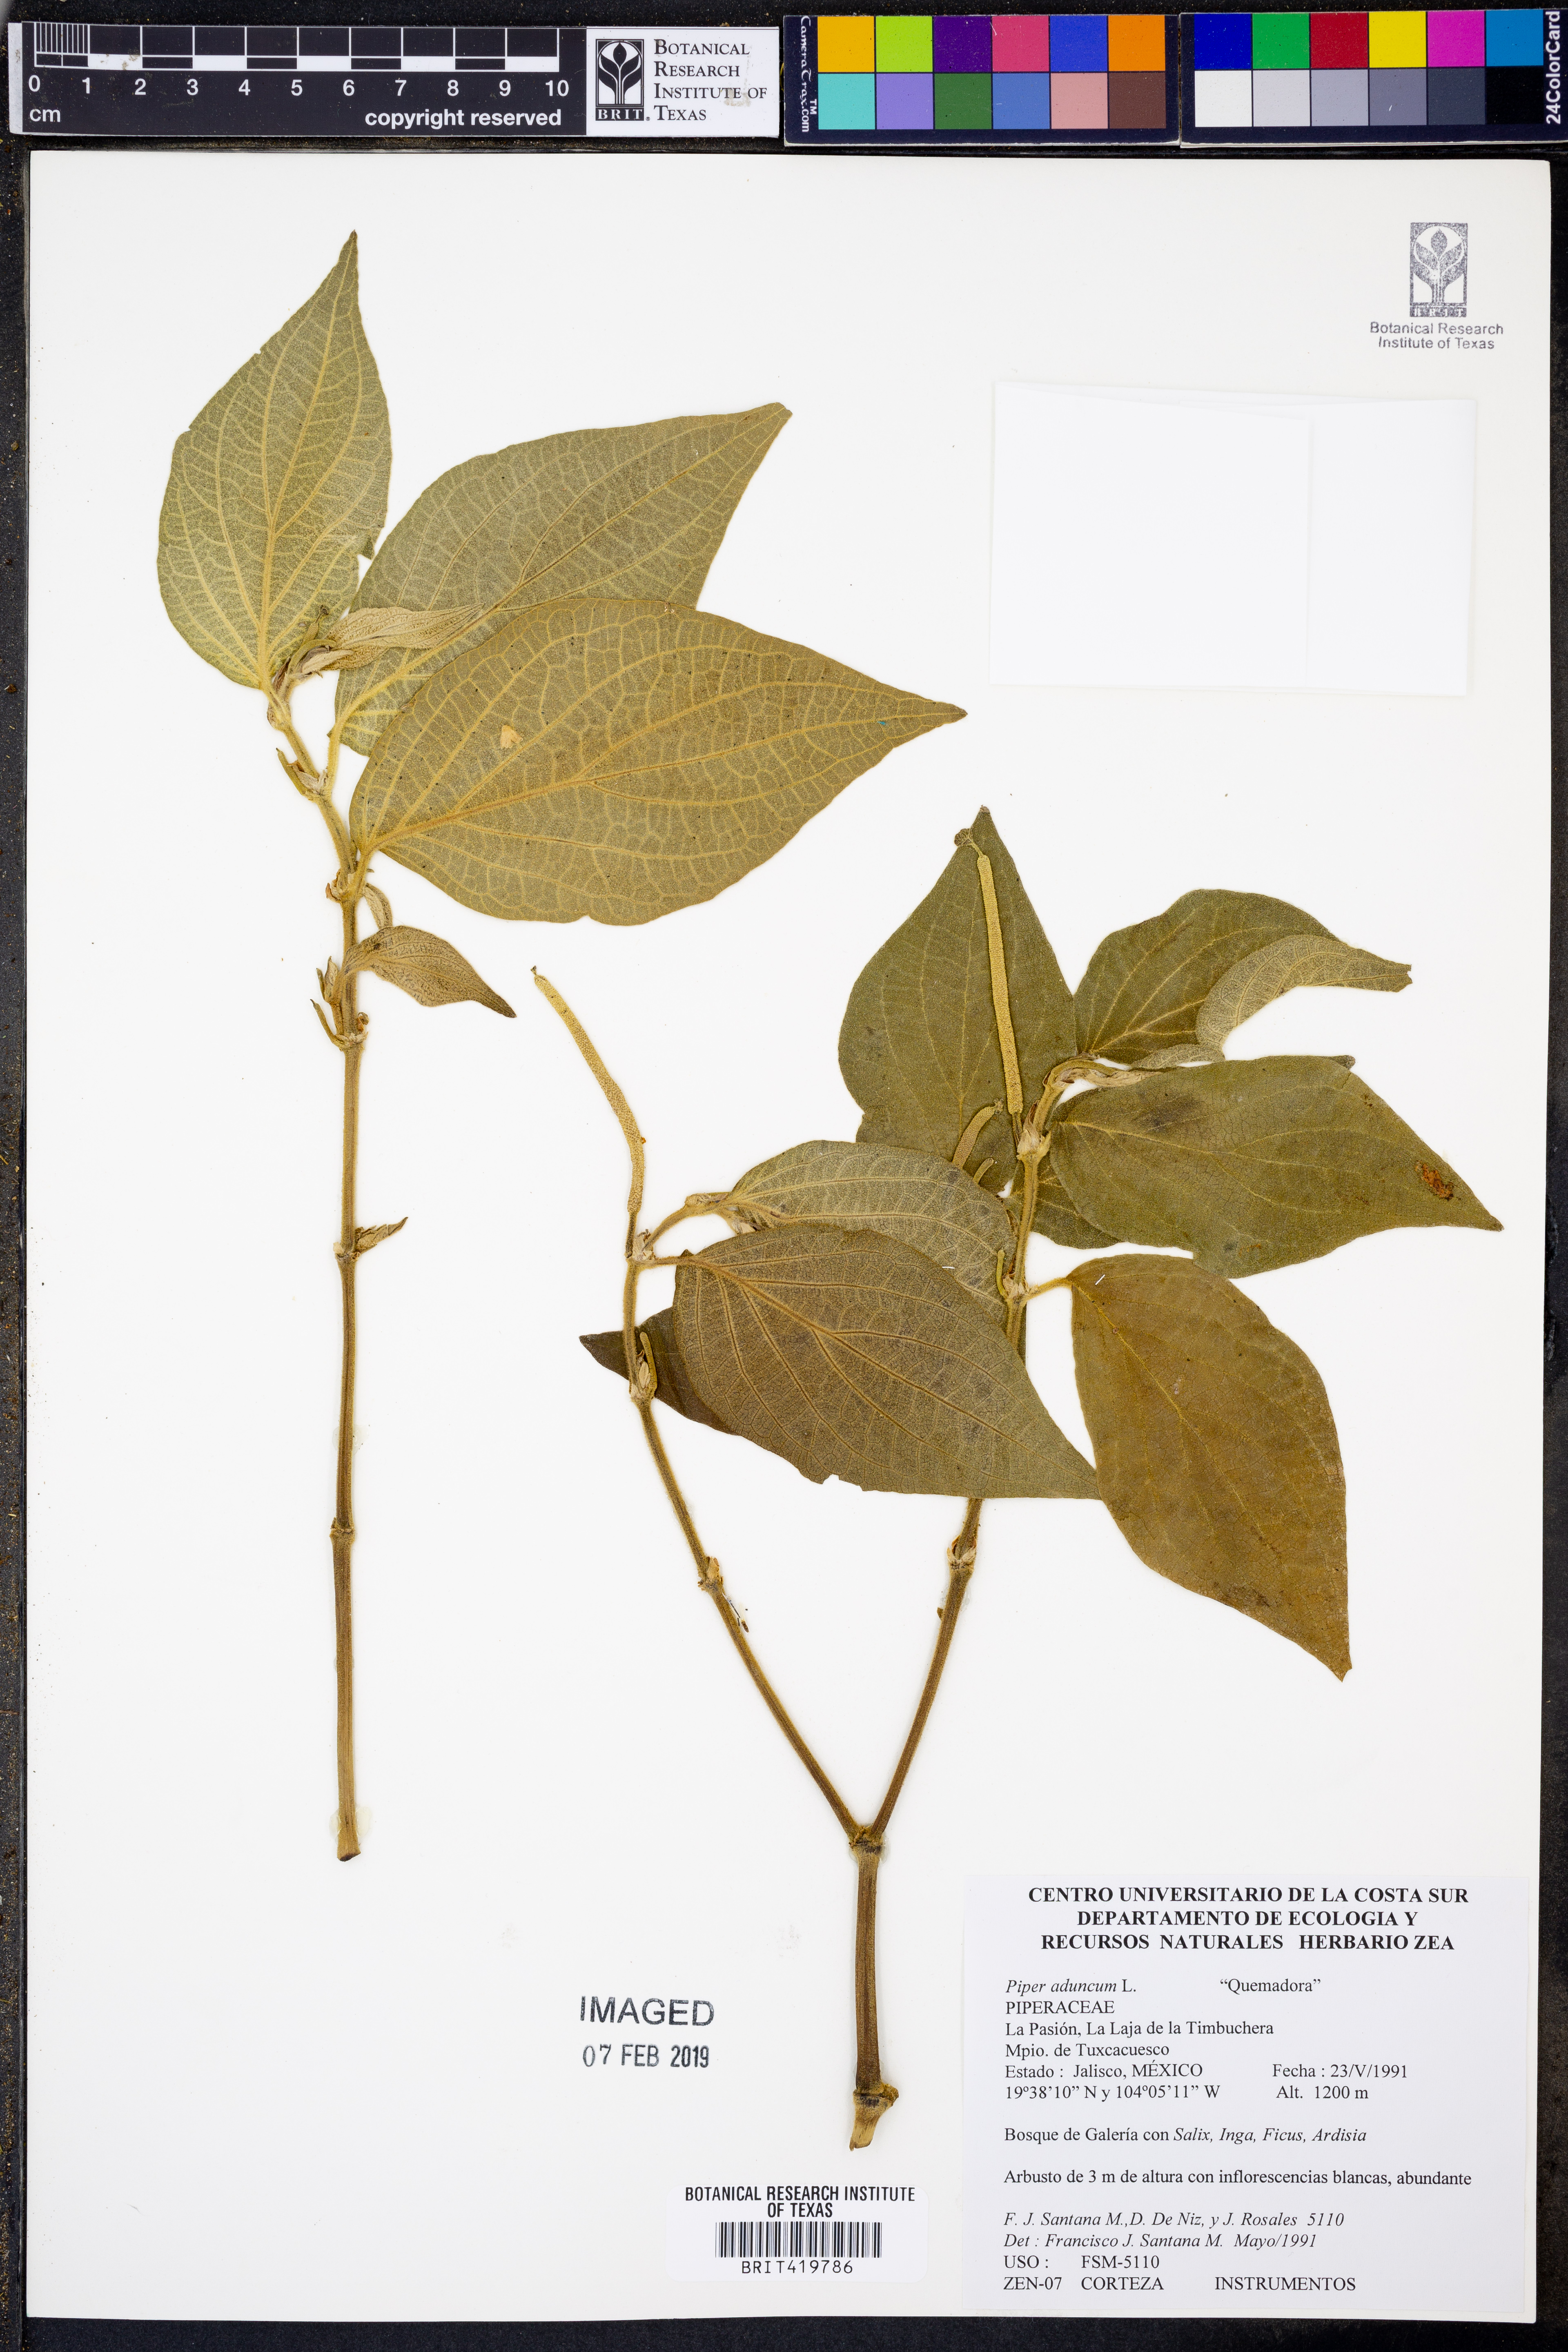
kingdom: Plantae
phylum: Tracheophyta
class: Magnoliopsida
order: Piperales
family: Piperaceae
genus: Piper
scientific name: Piper aduncum
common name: Spiked pepper
